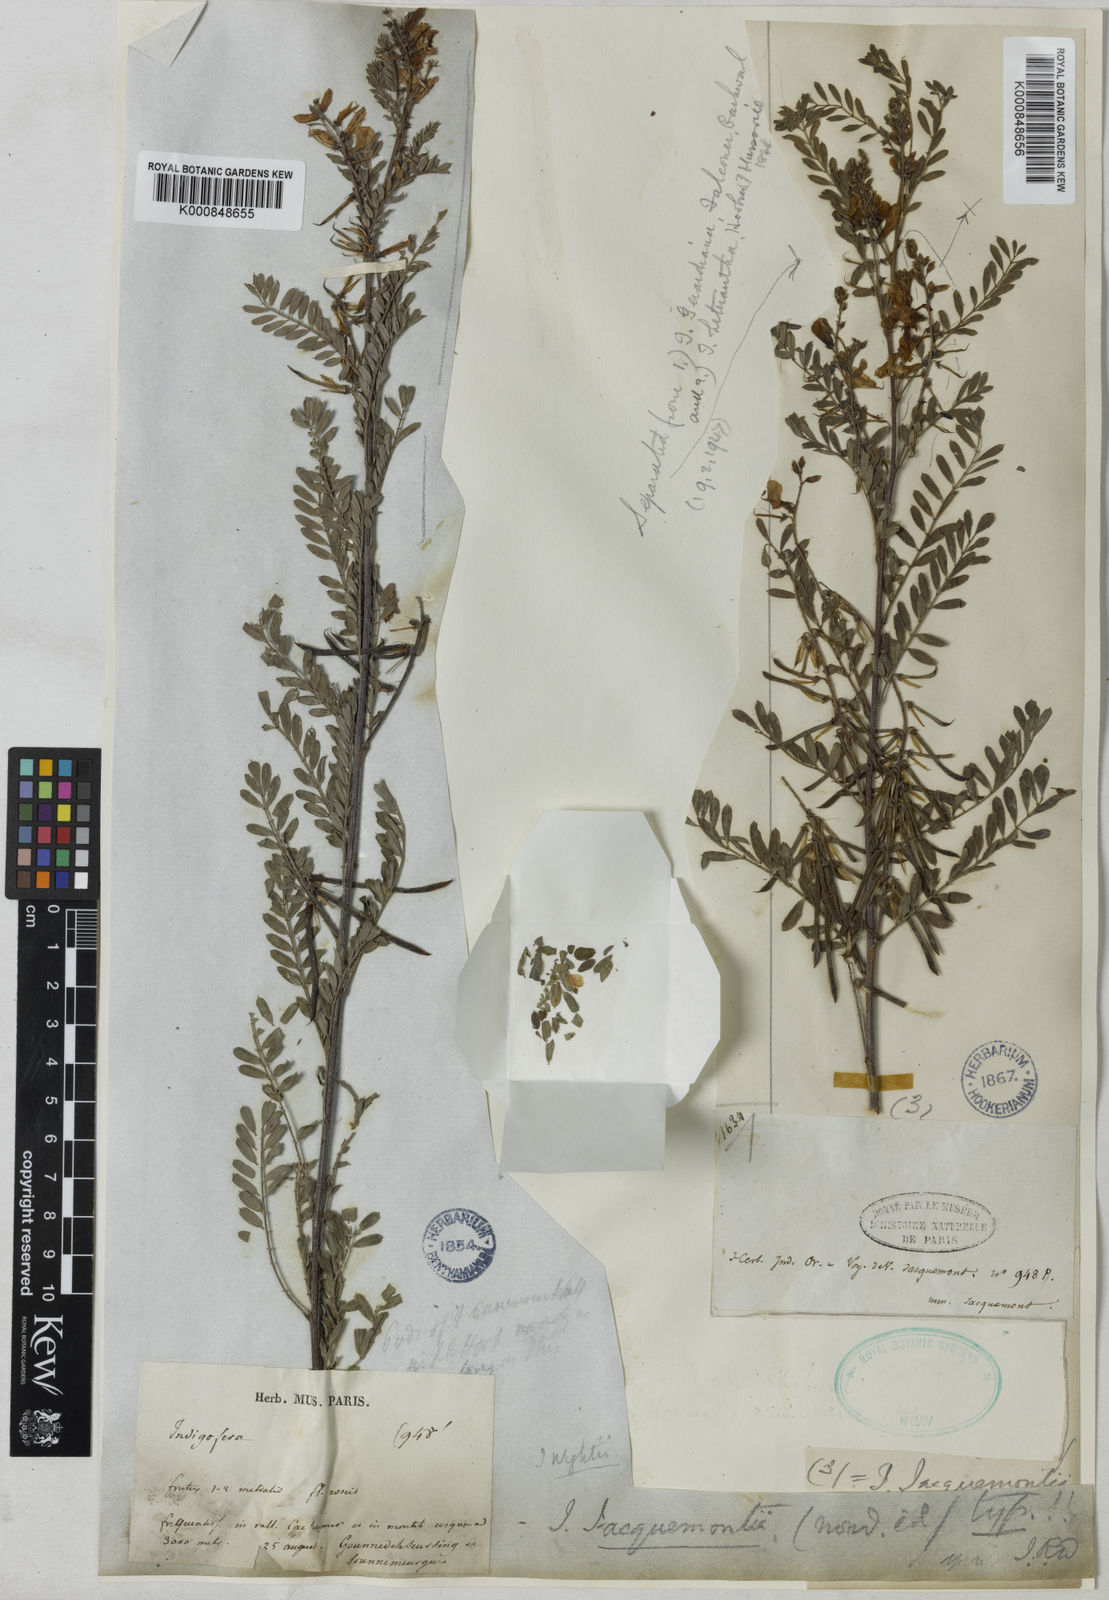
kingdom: Plantae
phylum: Tracheophyta
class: Magnoliopsida
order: Fabales
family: Fabaceae
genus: Indigofera
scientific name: Indigofera
